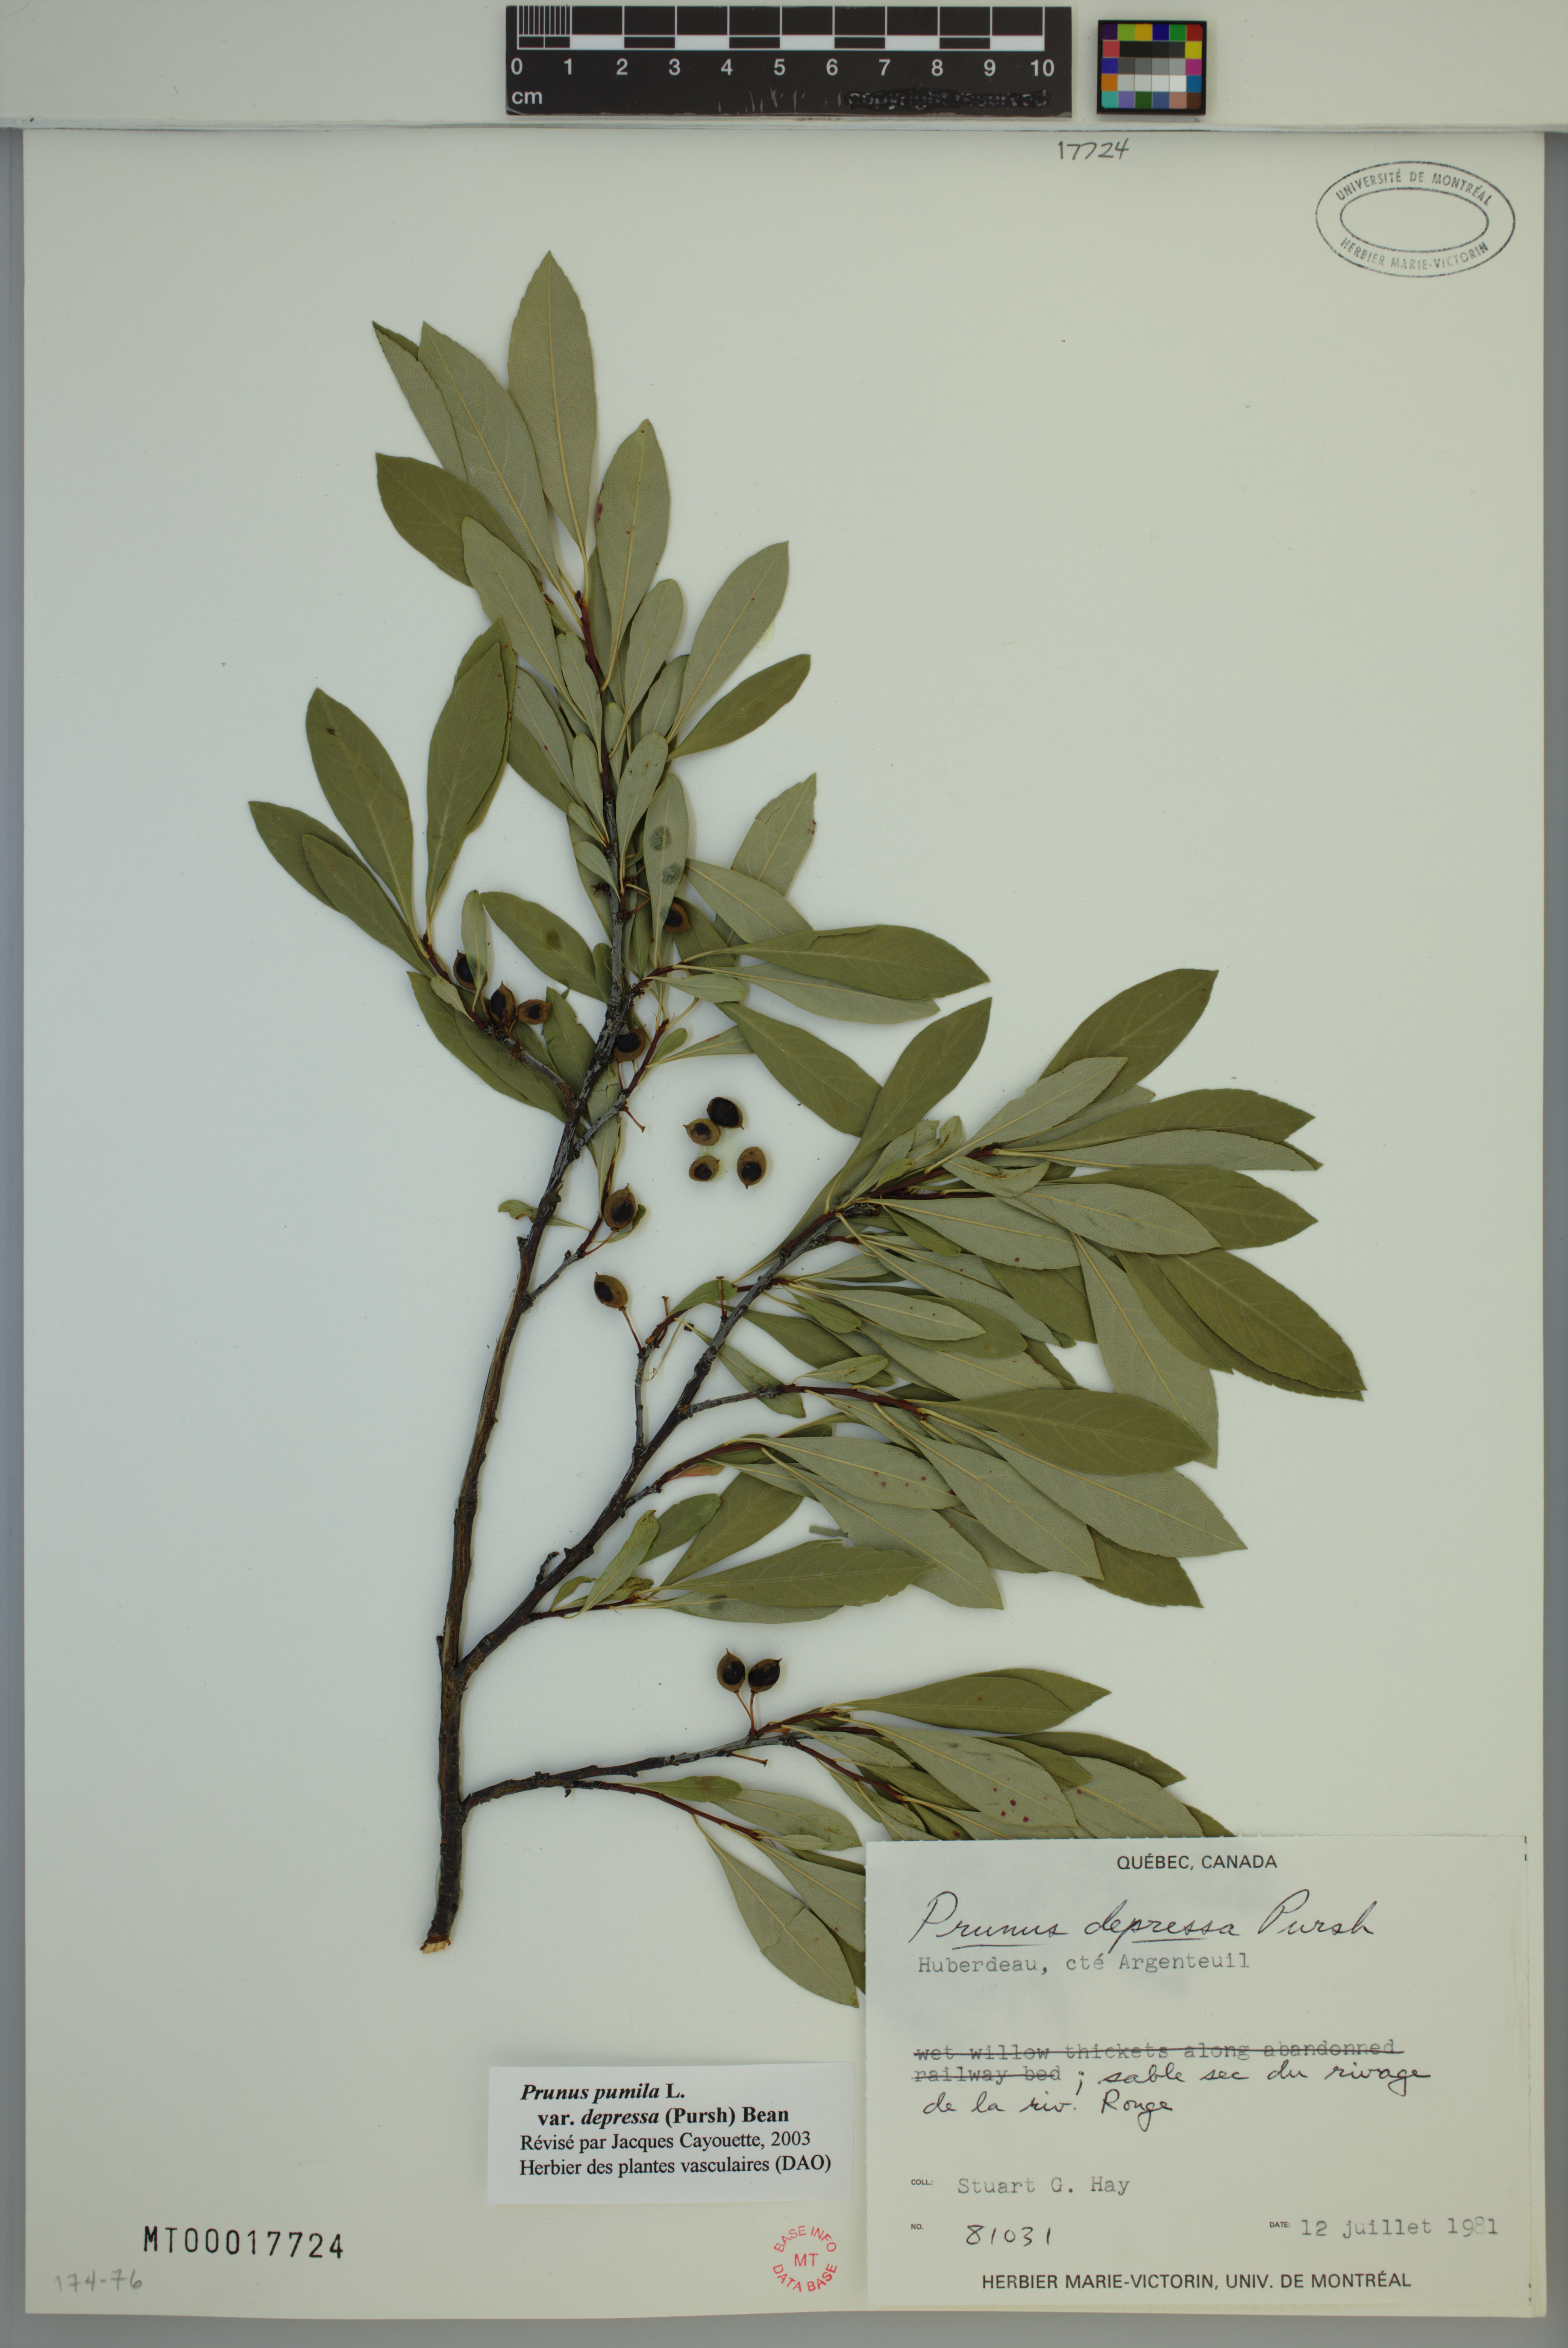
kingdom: Plantae
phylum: Tracheophyta
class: Magnoliopsida
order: Rosales
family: Rosaceae
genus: Prunus
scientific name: Prunus pumila
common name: Dwarf cherry
